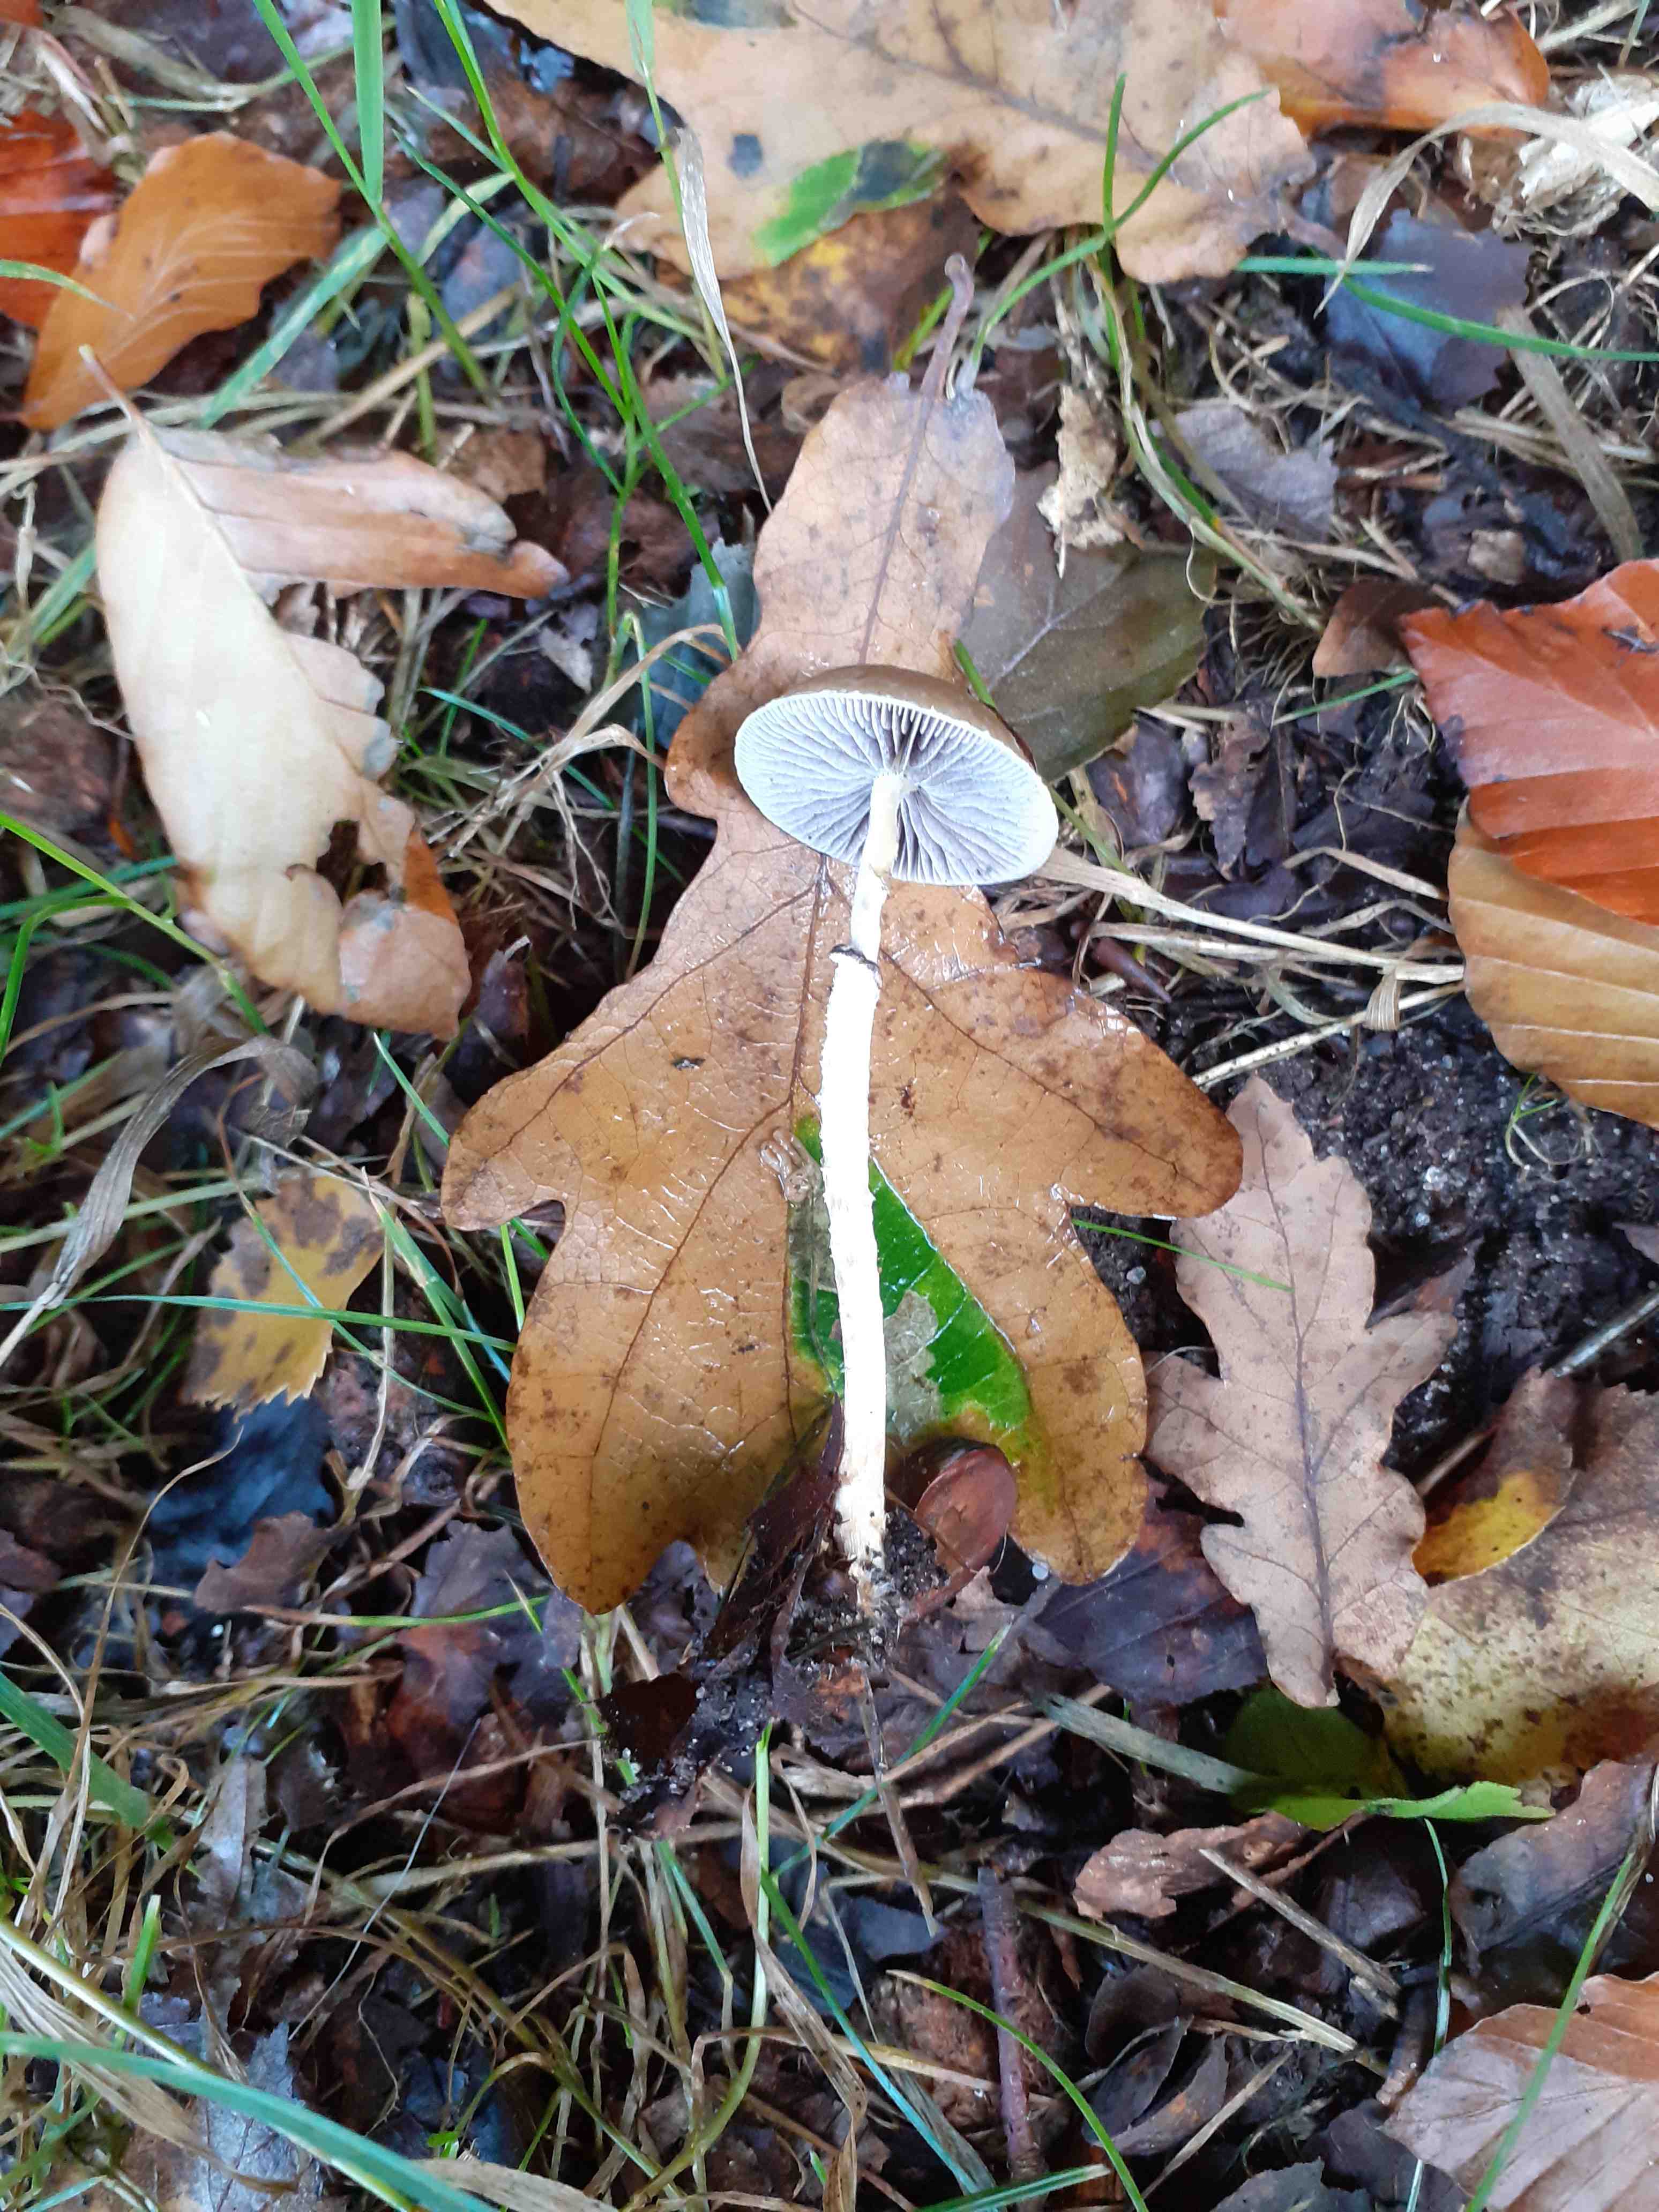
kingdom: Fungi
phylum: Basidiomycota
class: Agaricomycetes
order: Agaricales
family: Strophariaceae
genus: Leratiomyces
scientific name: Leratiomyces squamosus
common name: skællet bredblad
